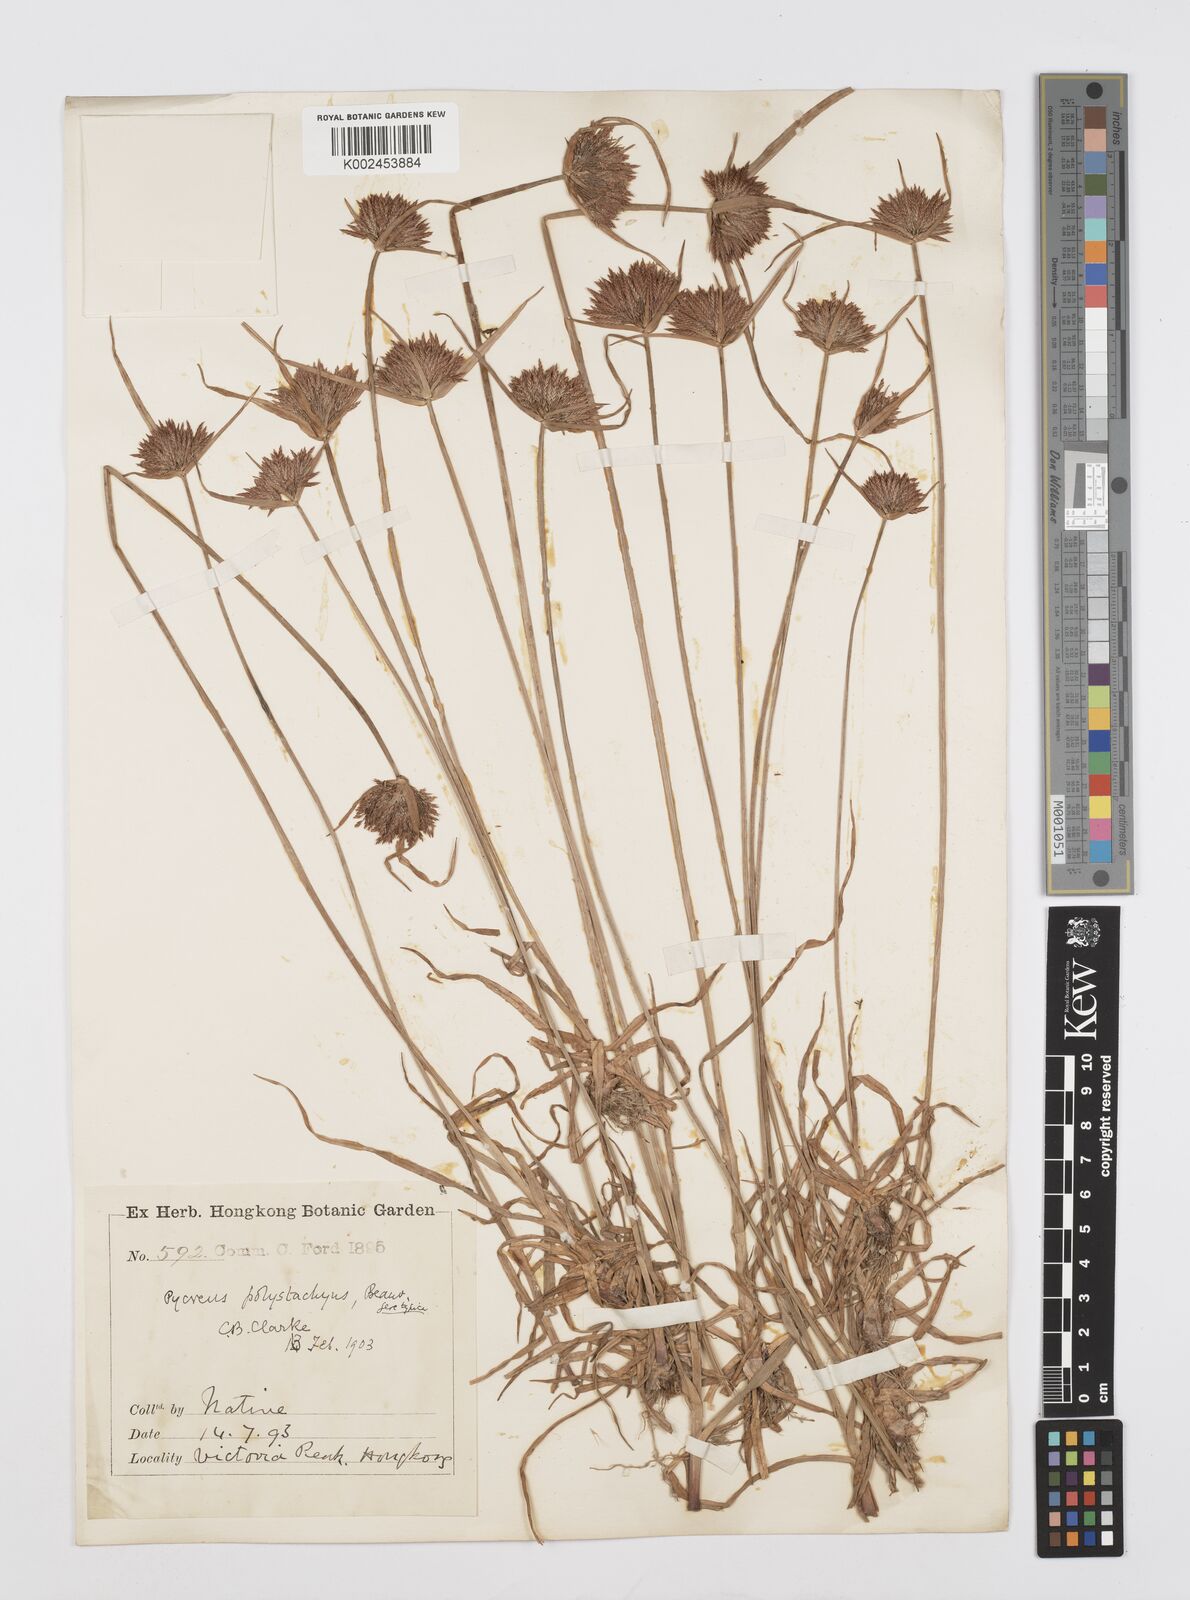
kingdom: Plantae
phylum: Tracheophyta
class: Liliopsida
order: Poales
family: Cyperaceae
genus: Cyperus
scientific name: Cyperus polystachyos
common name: Bunchy flat sedge
